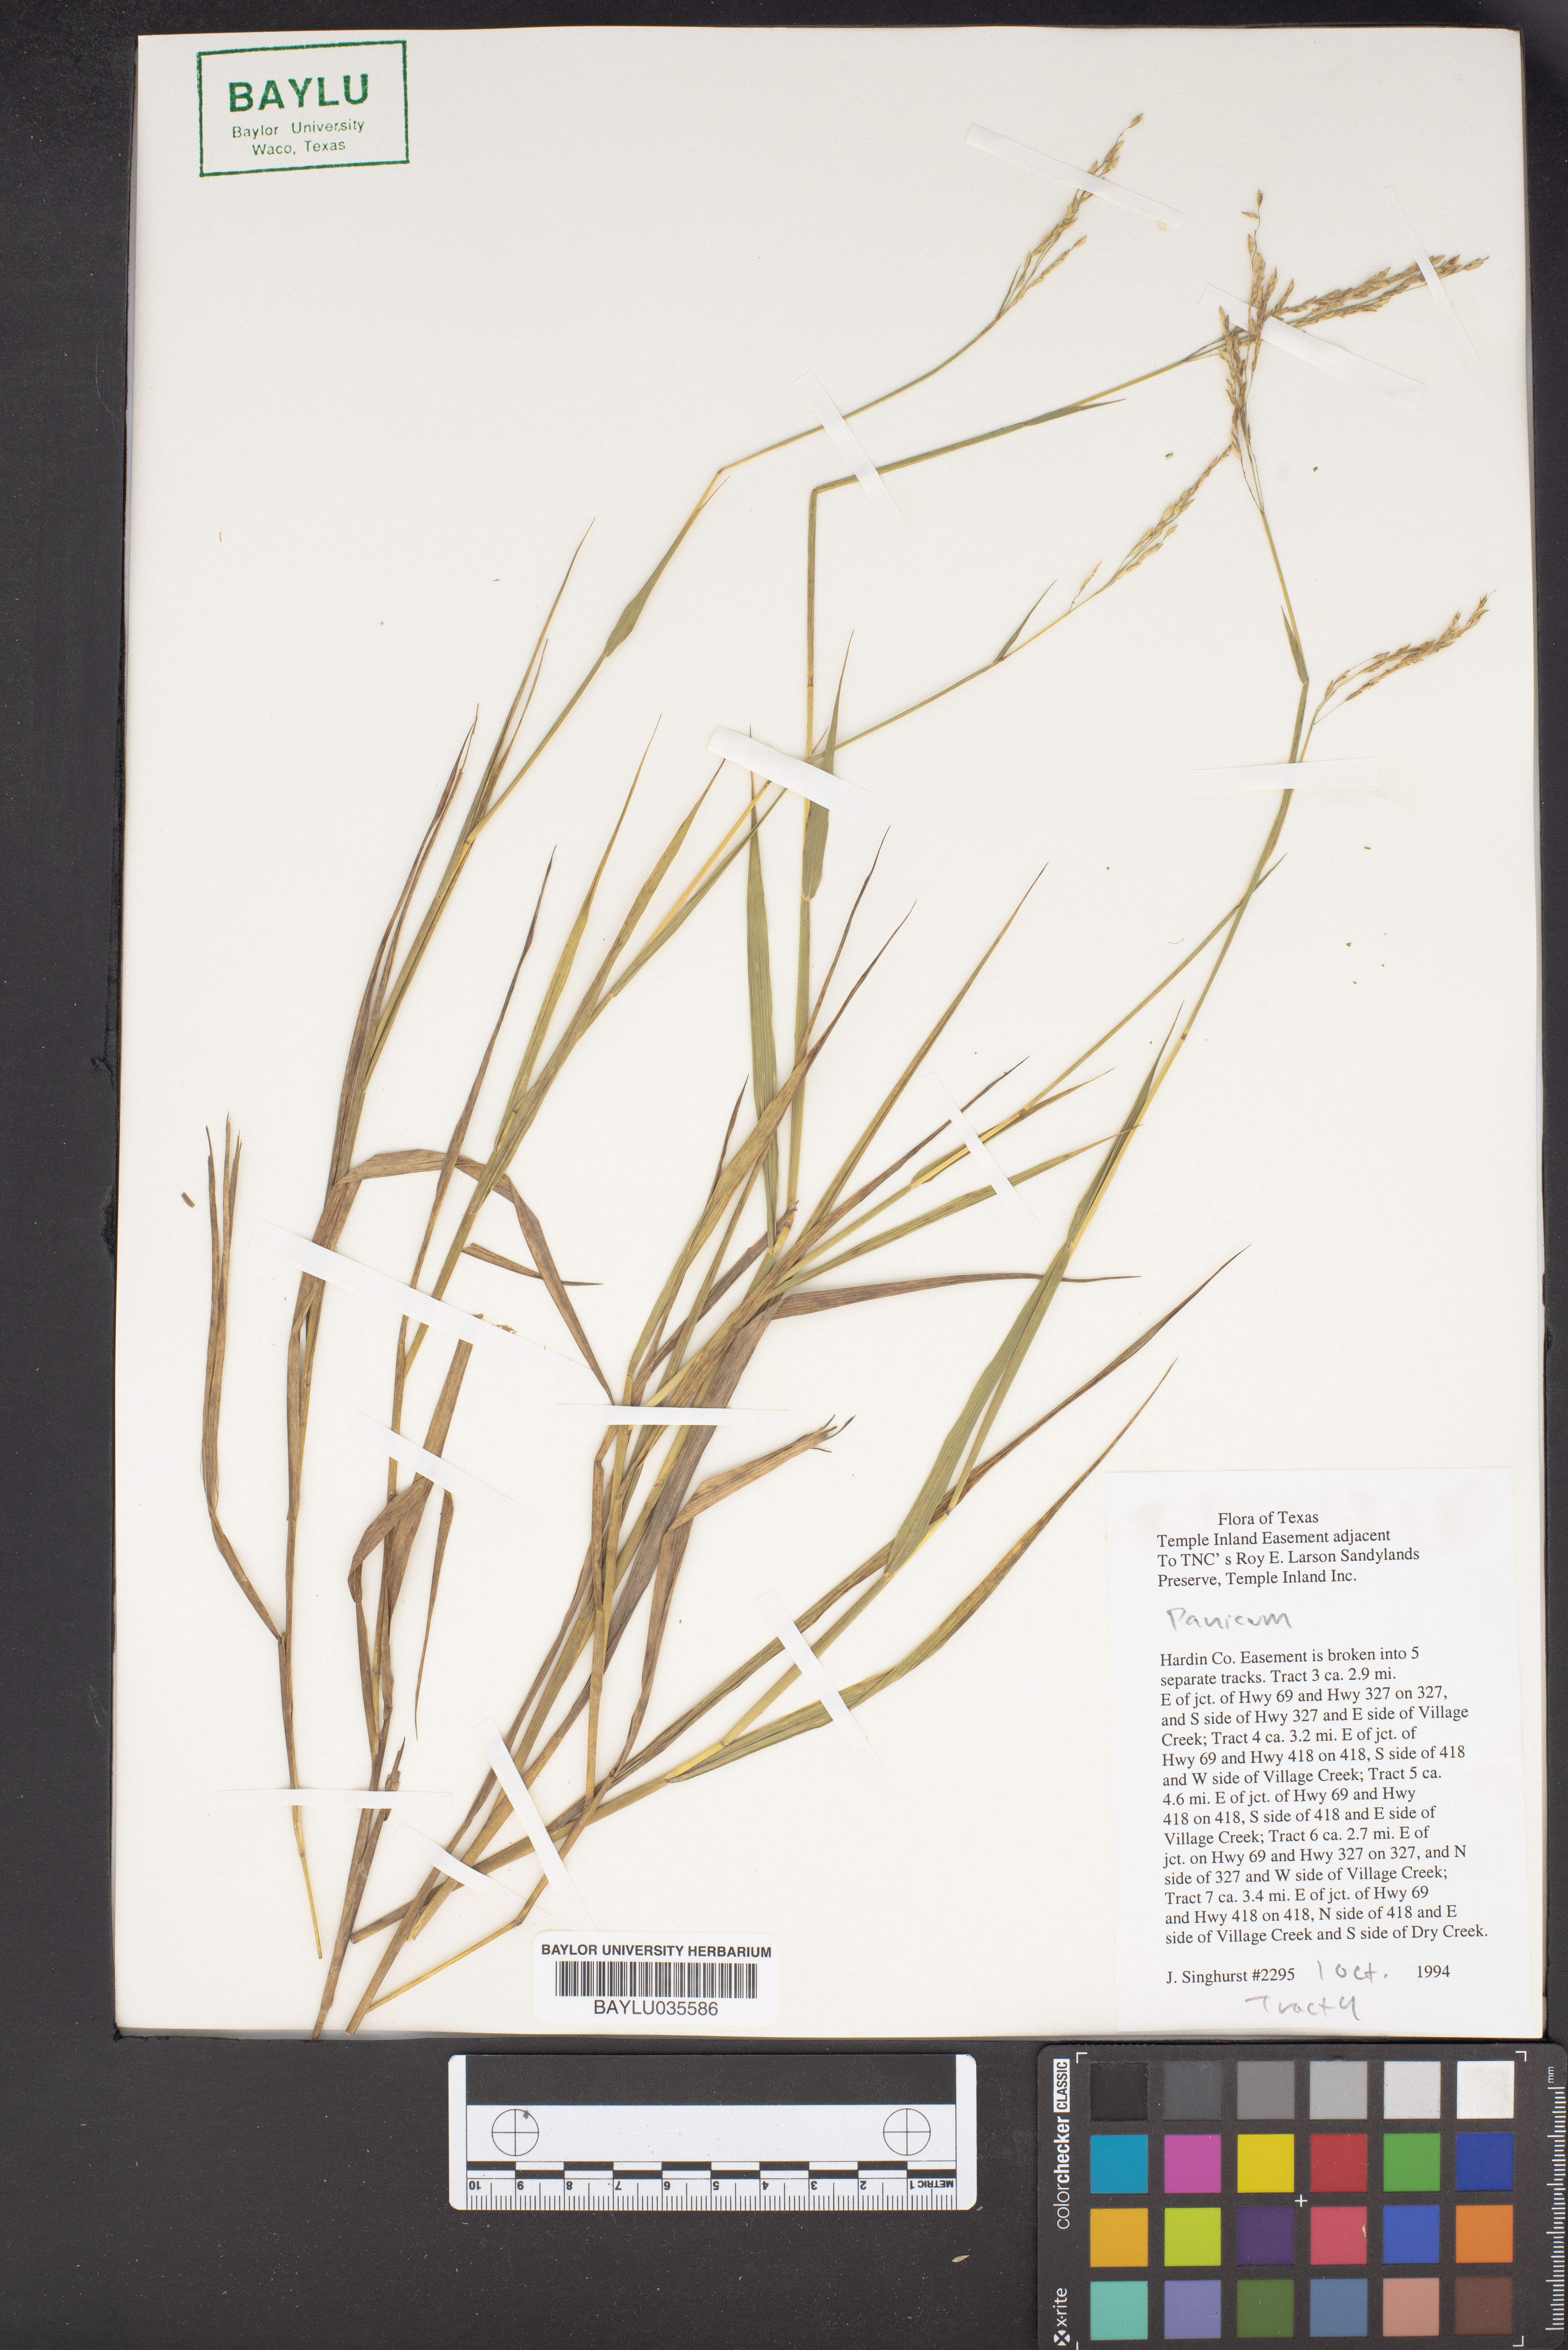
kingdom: Plantae
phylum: Tracheophyta
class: Liliopsida
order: Poales
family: Poaceae
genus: Panicum
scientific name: Panicum
